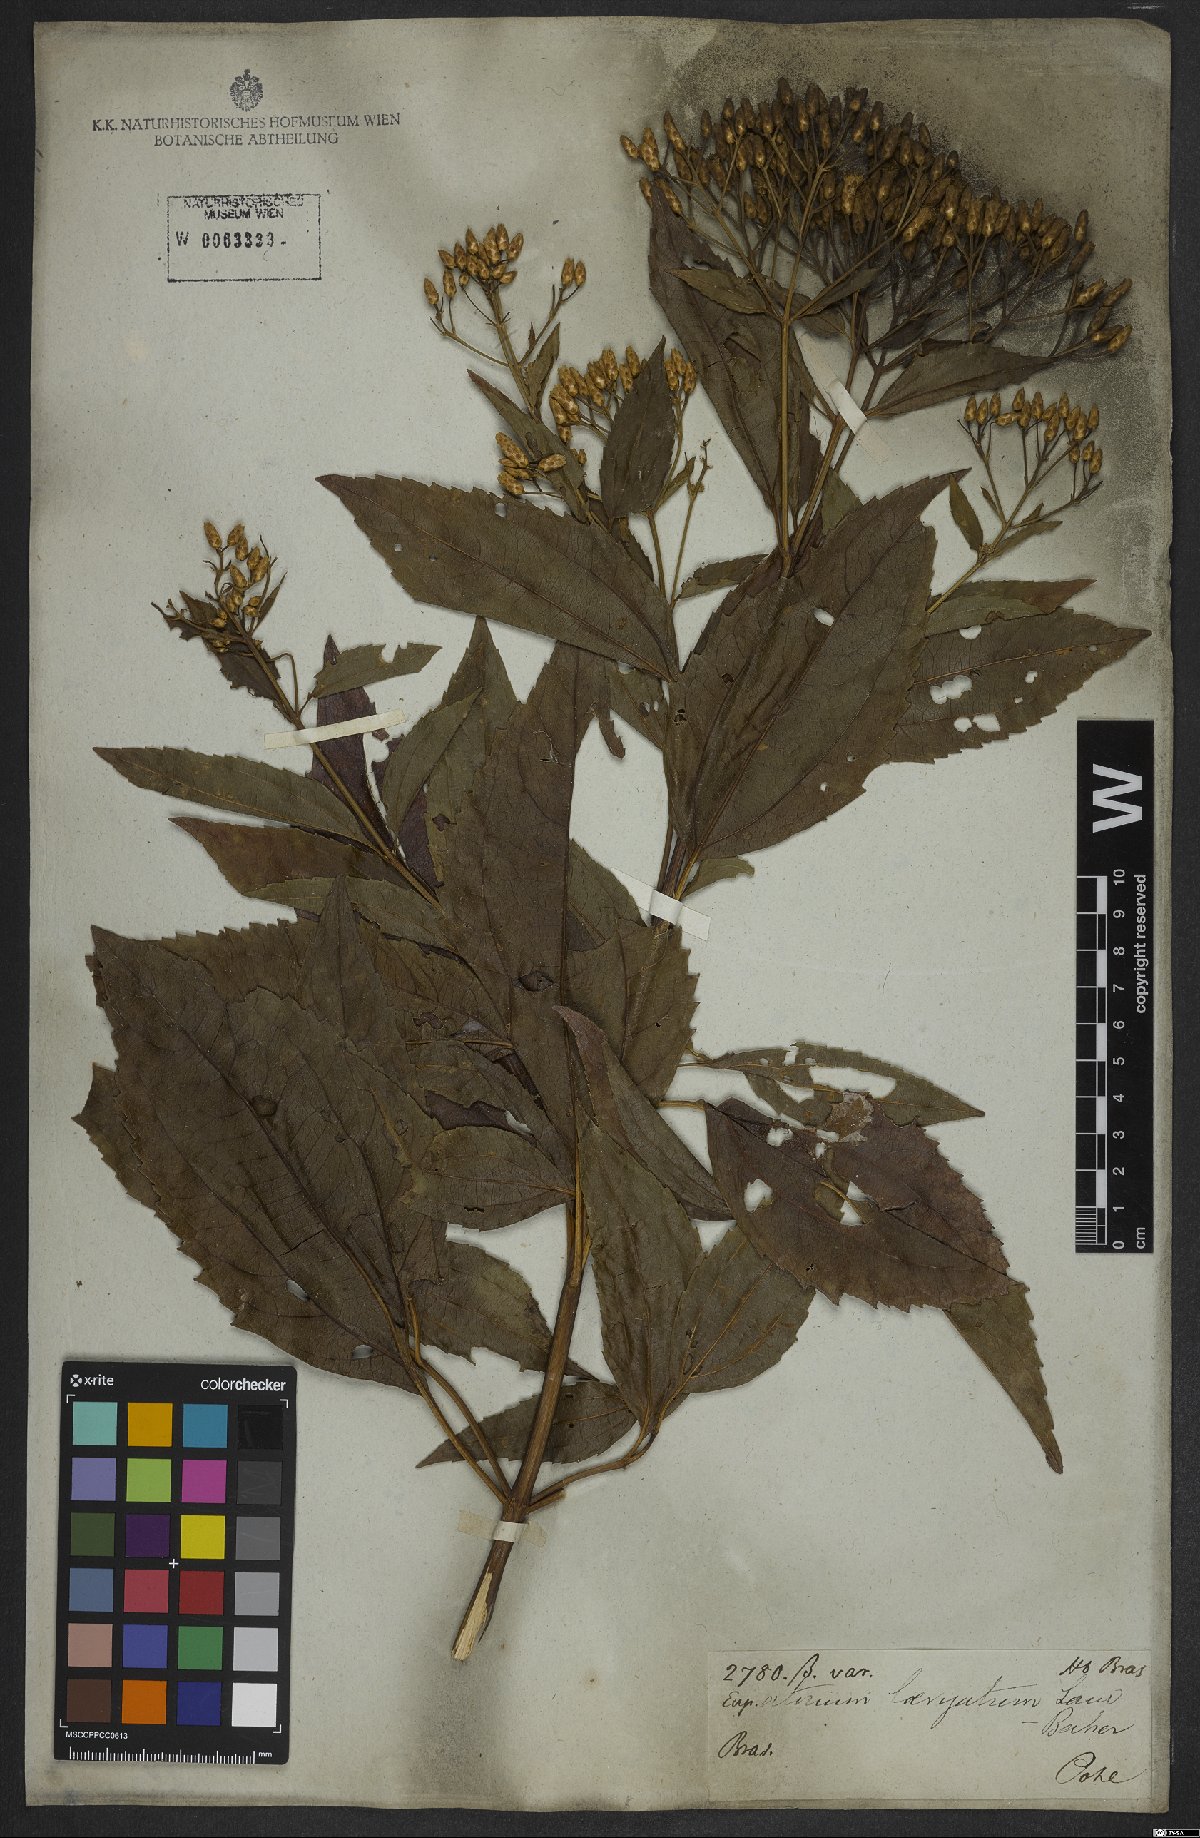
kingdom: Plantae
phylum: Tracheophyta
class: Magnoliopsida
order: Asterales
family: Asteraceae
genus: Eupatorium
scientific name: Eupatorium laevigatum
